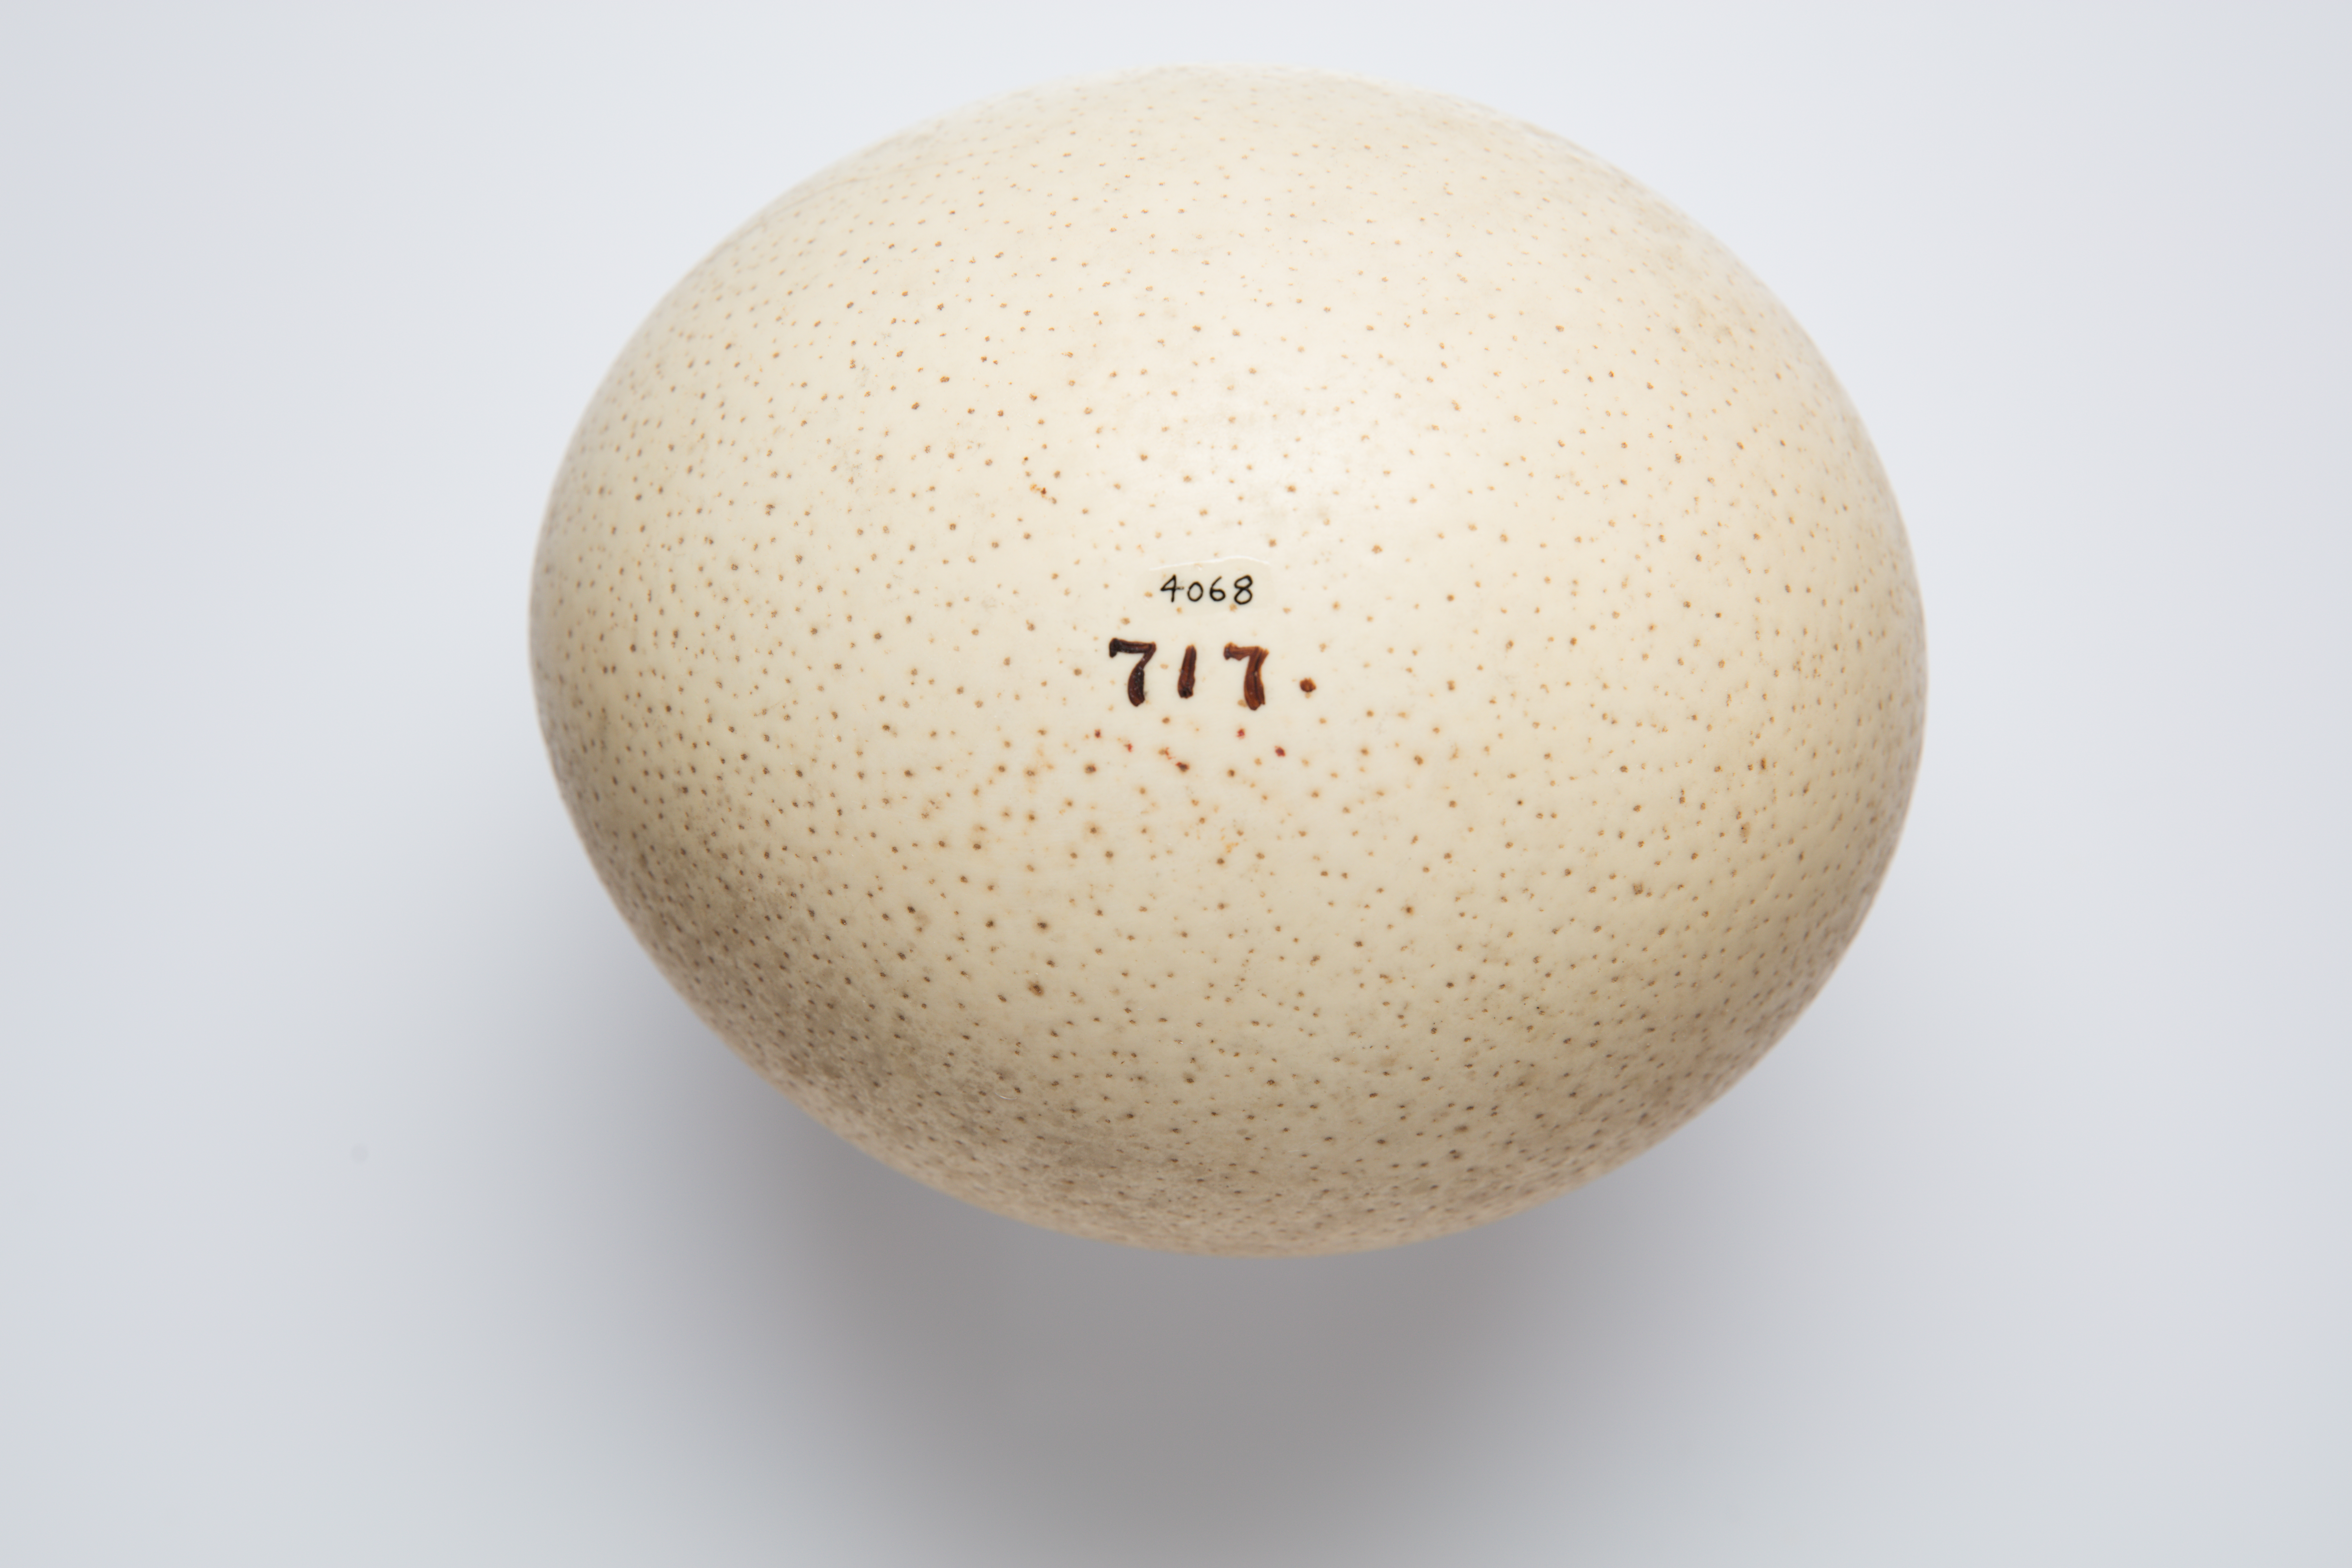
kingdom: Animalia
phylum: Chordata
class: Aves
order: Struthioniformes
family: Struthionidae
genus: Struthio
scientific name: Struthio camelus
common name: Common ostrich
